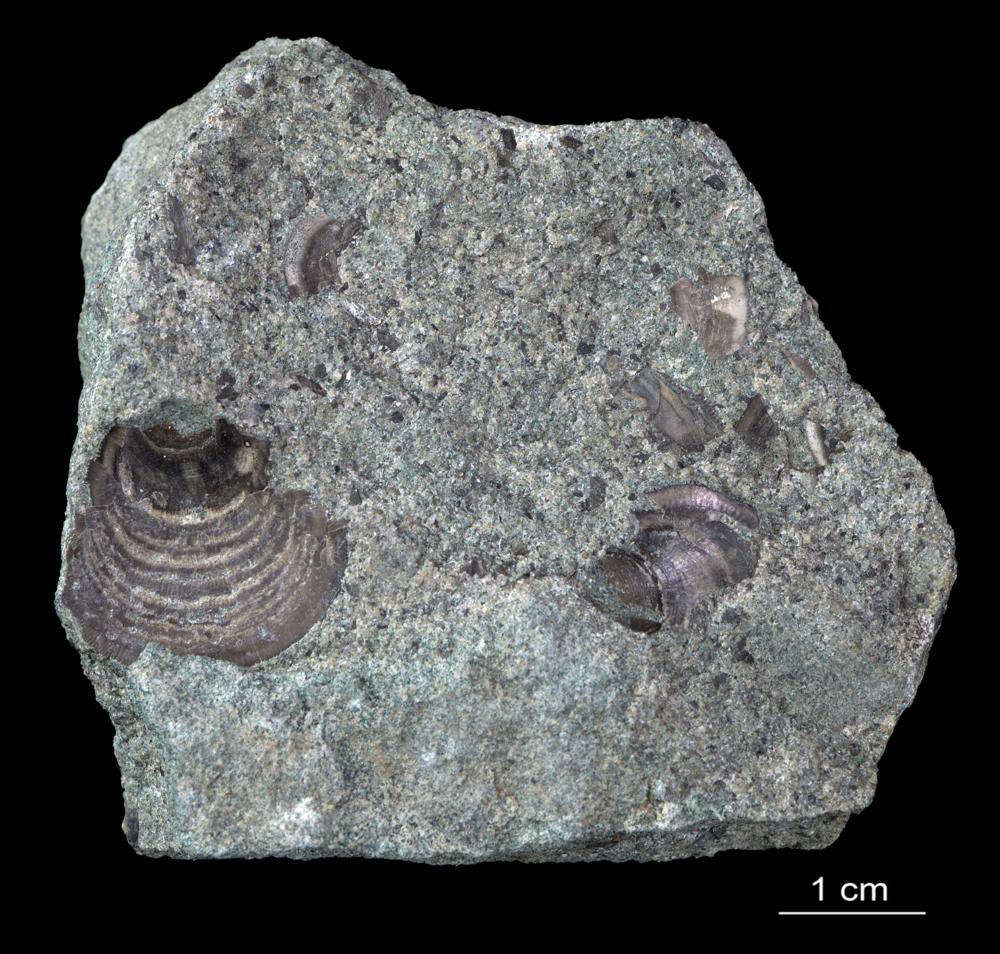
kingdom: Animalia
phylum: Brachiopoda
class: Lingulata
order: Lingulida
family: Zhanatellidae
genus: Thysanotos
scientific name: Thysanotos
